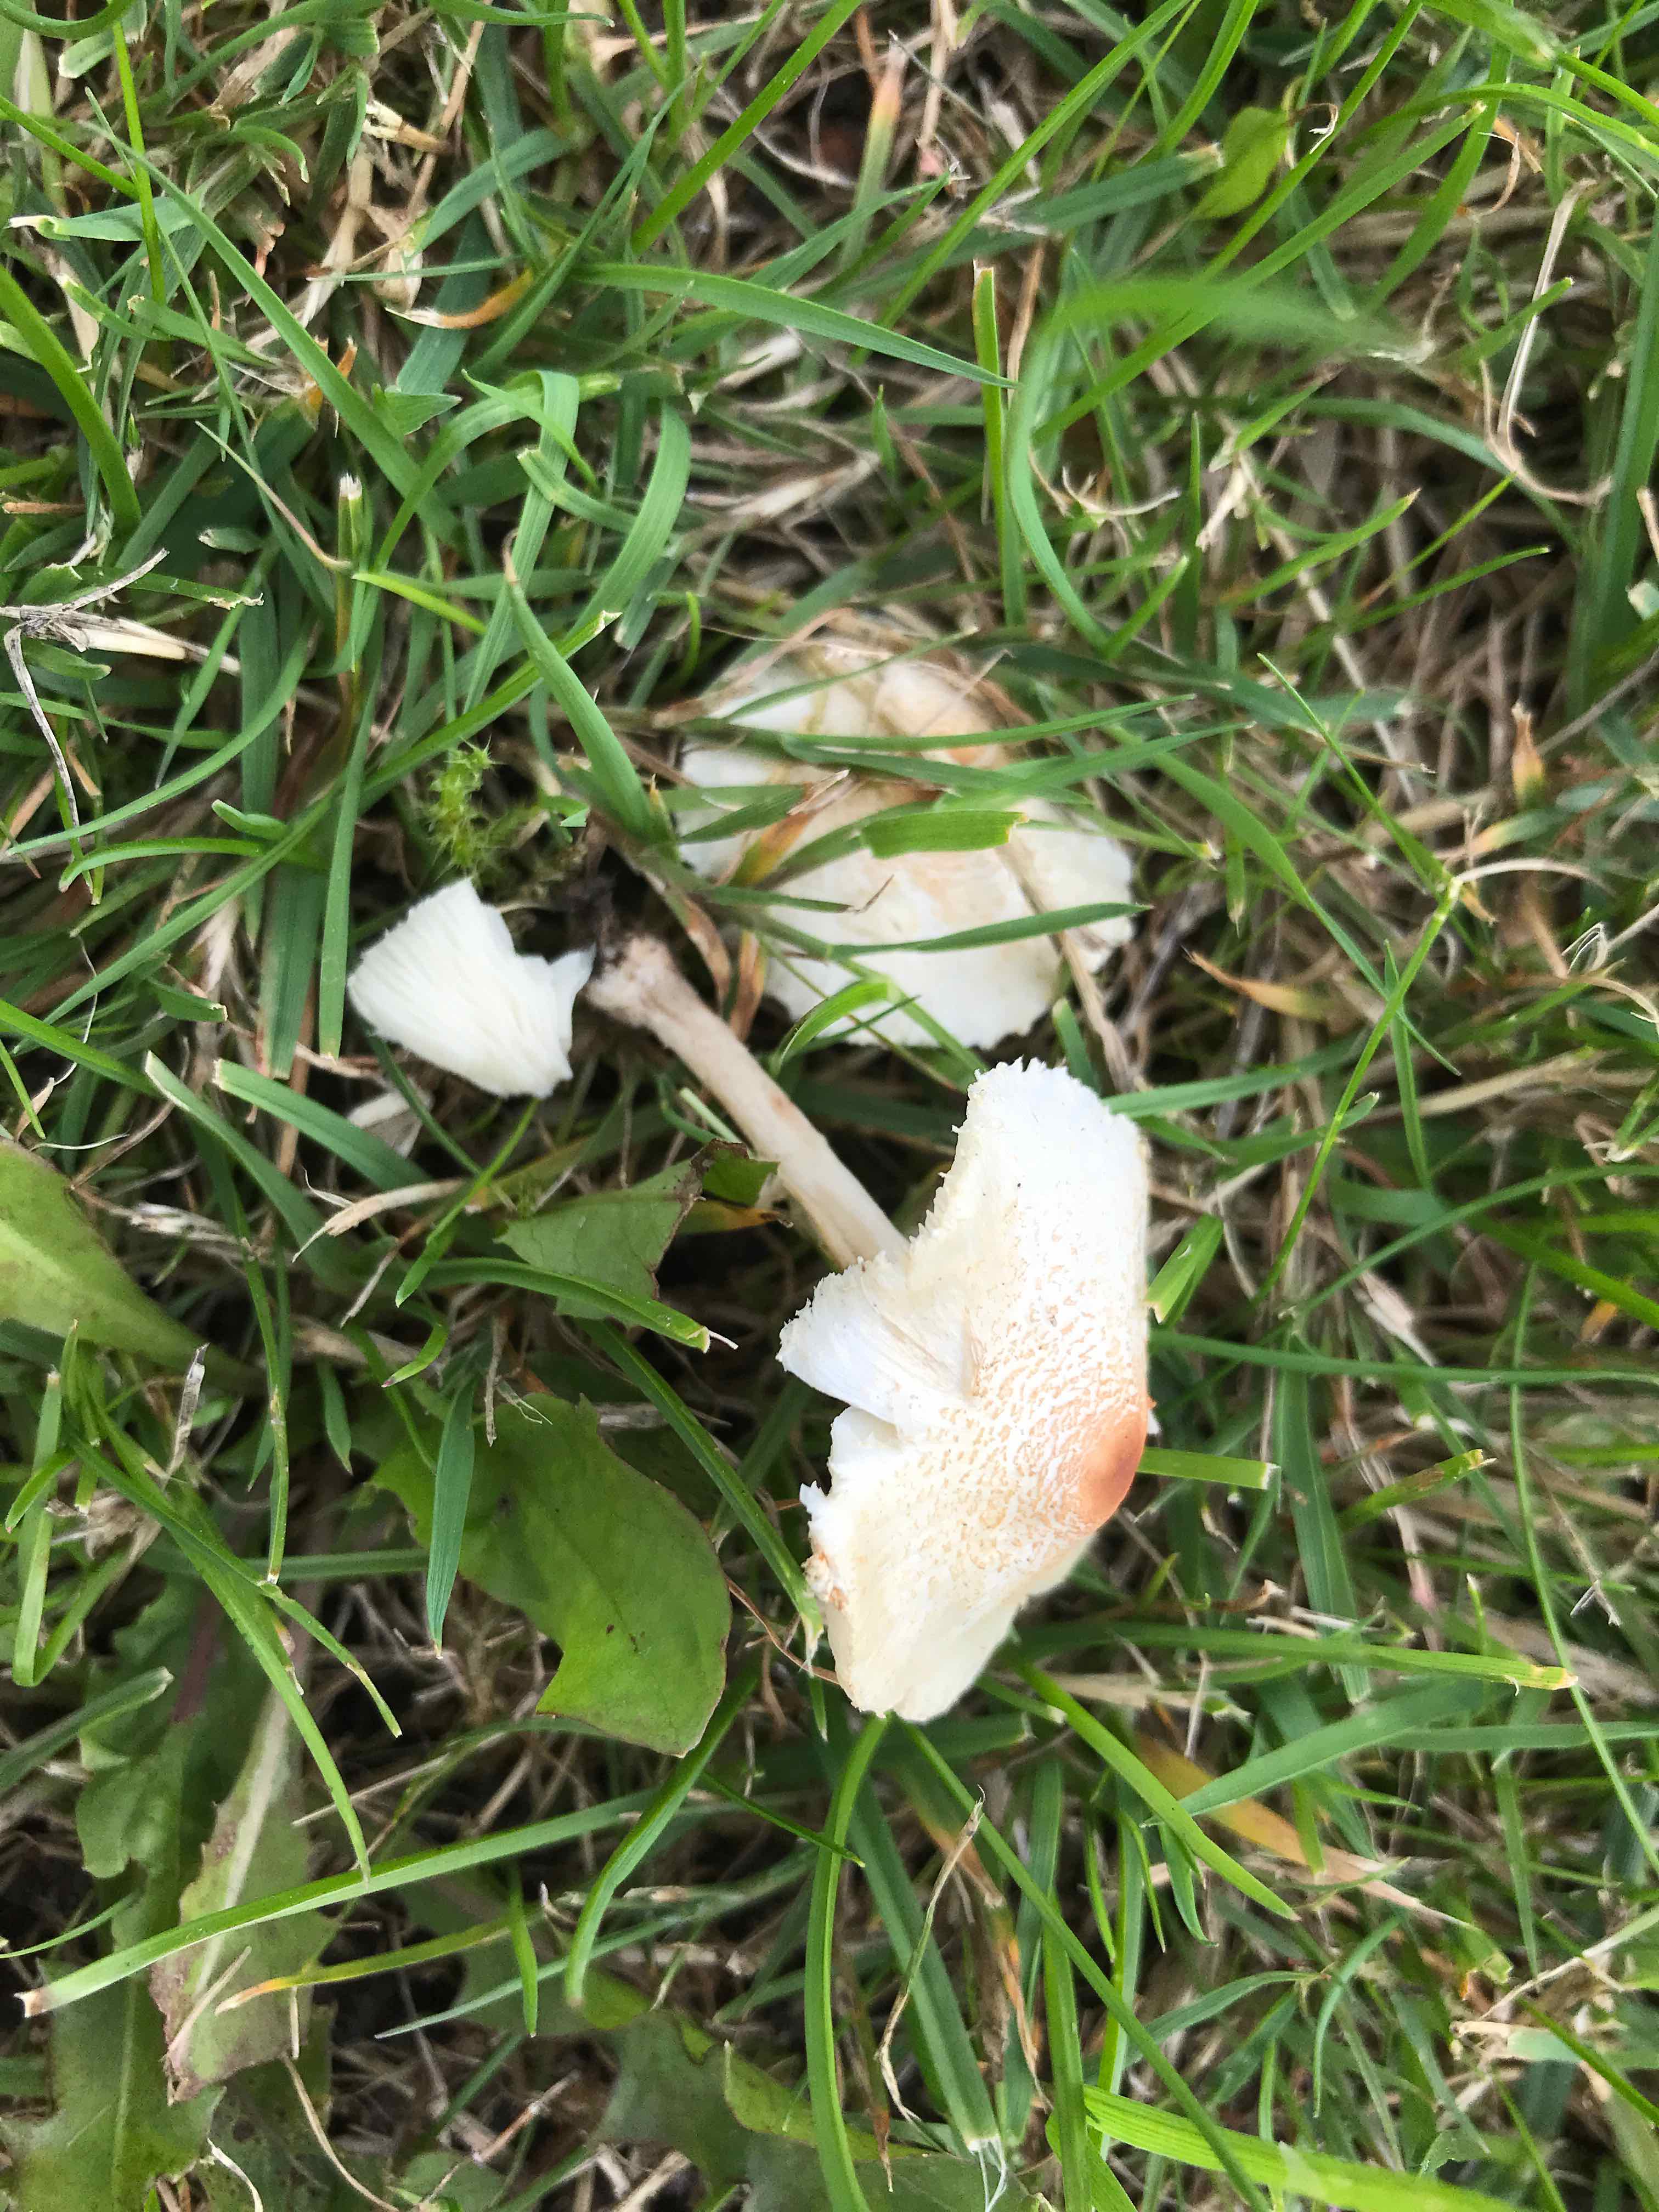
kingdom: Fungi
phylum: Basidiomycota
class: Agaricomycetes
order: Agaricales
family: Agaricaceae
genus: Lepiota
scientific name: Lepiota cristata
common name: stinkende parasolhat
